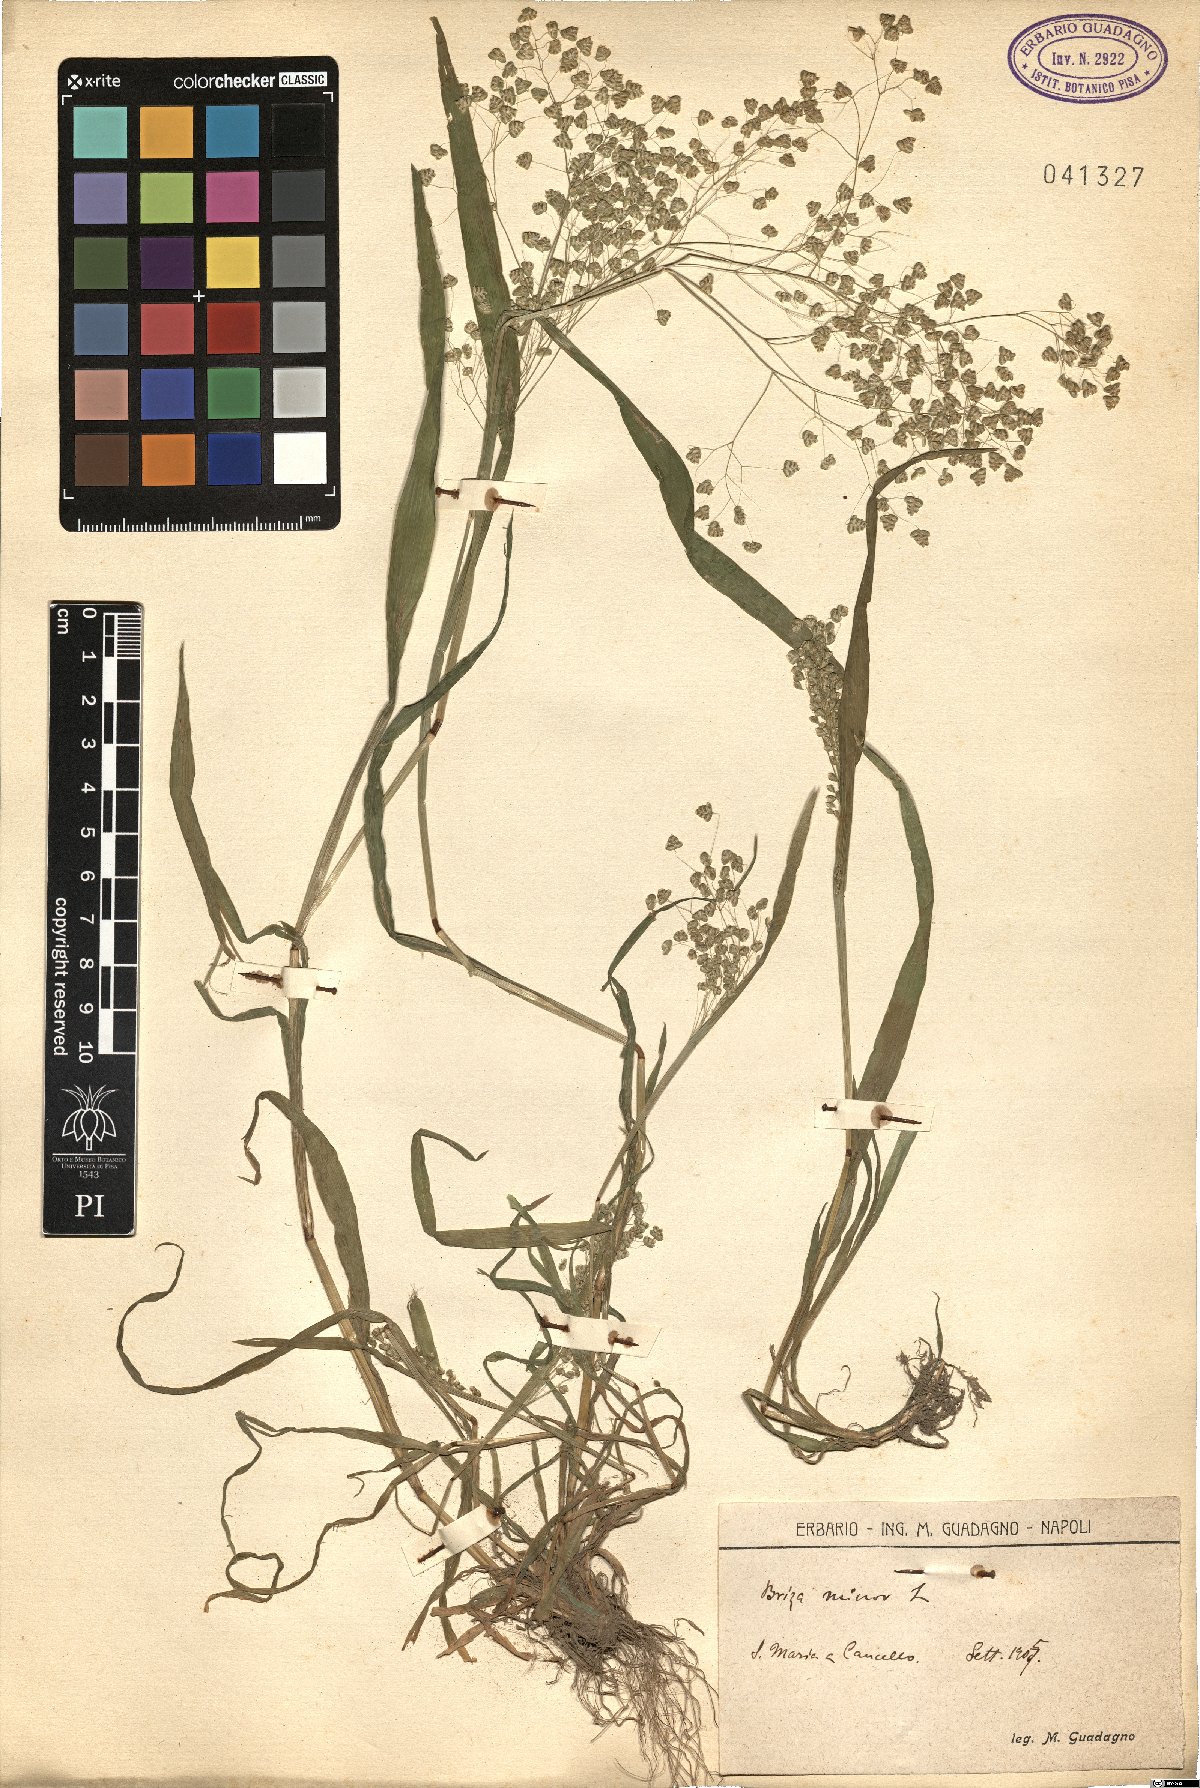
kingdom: Plantae
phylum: Tracheophyta
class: Liliopsida
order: Poales
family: Poaceae
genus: Briza
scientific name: Briza minor
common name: Lesser quaking-grass
